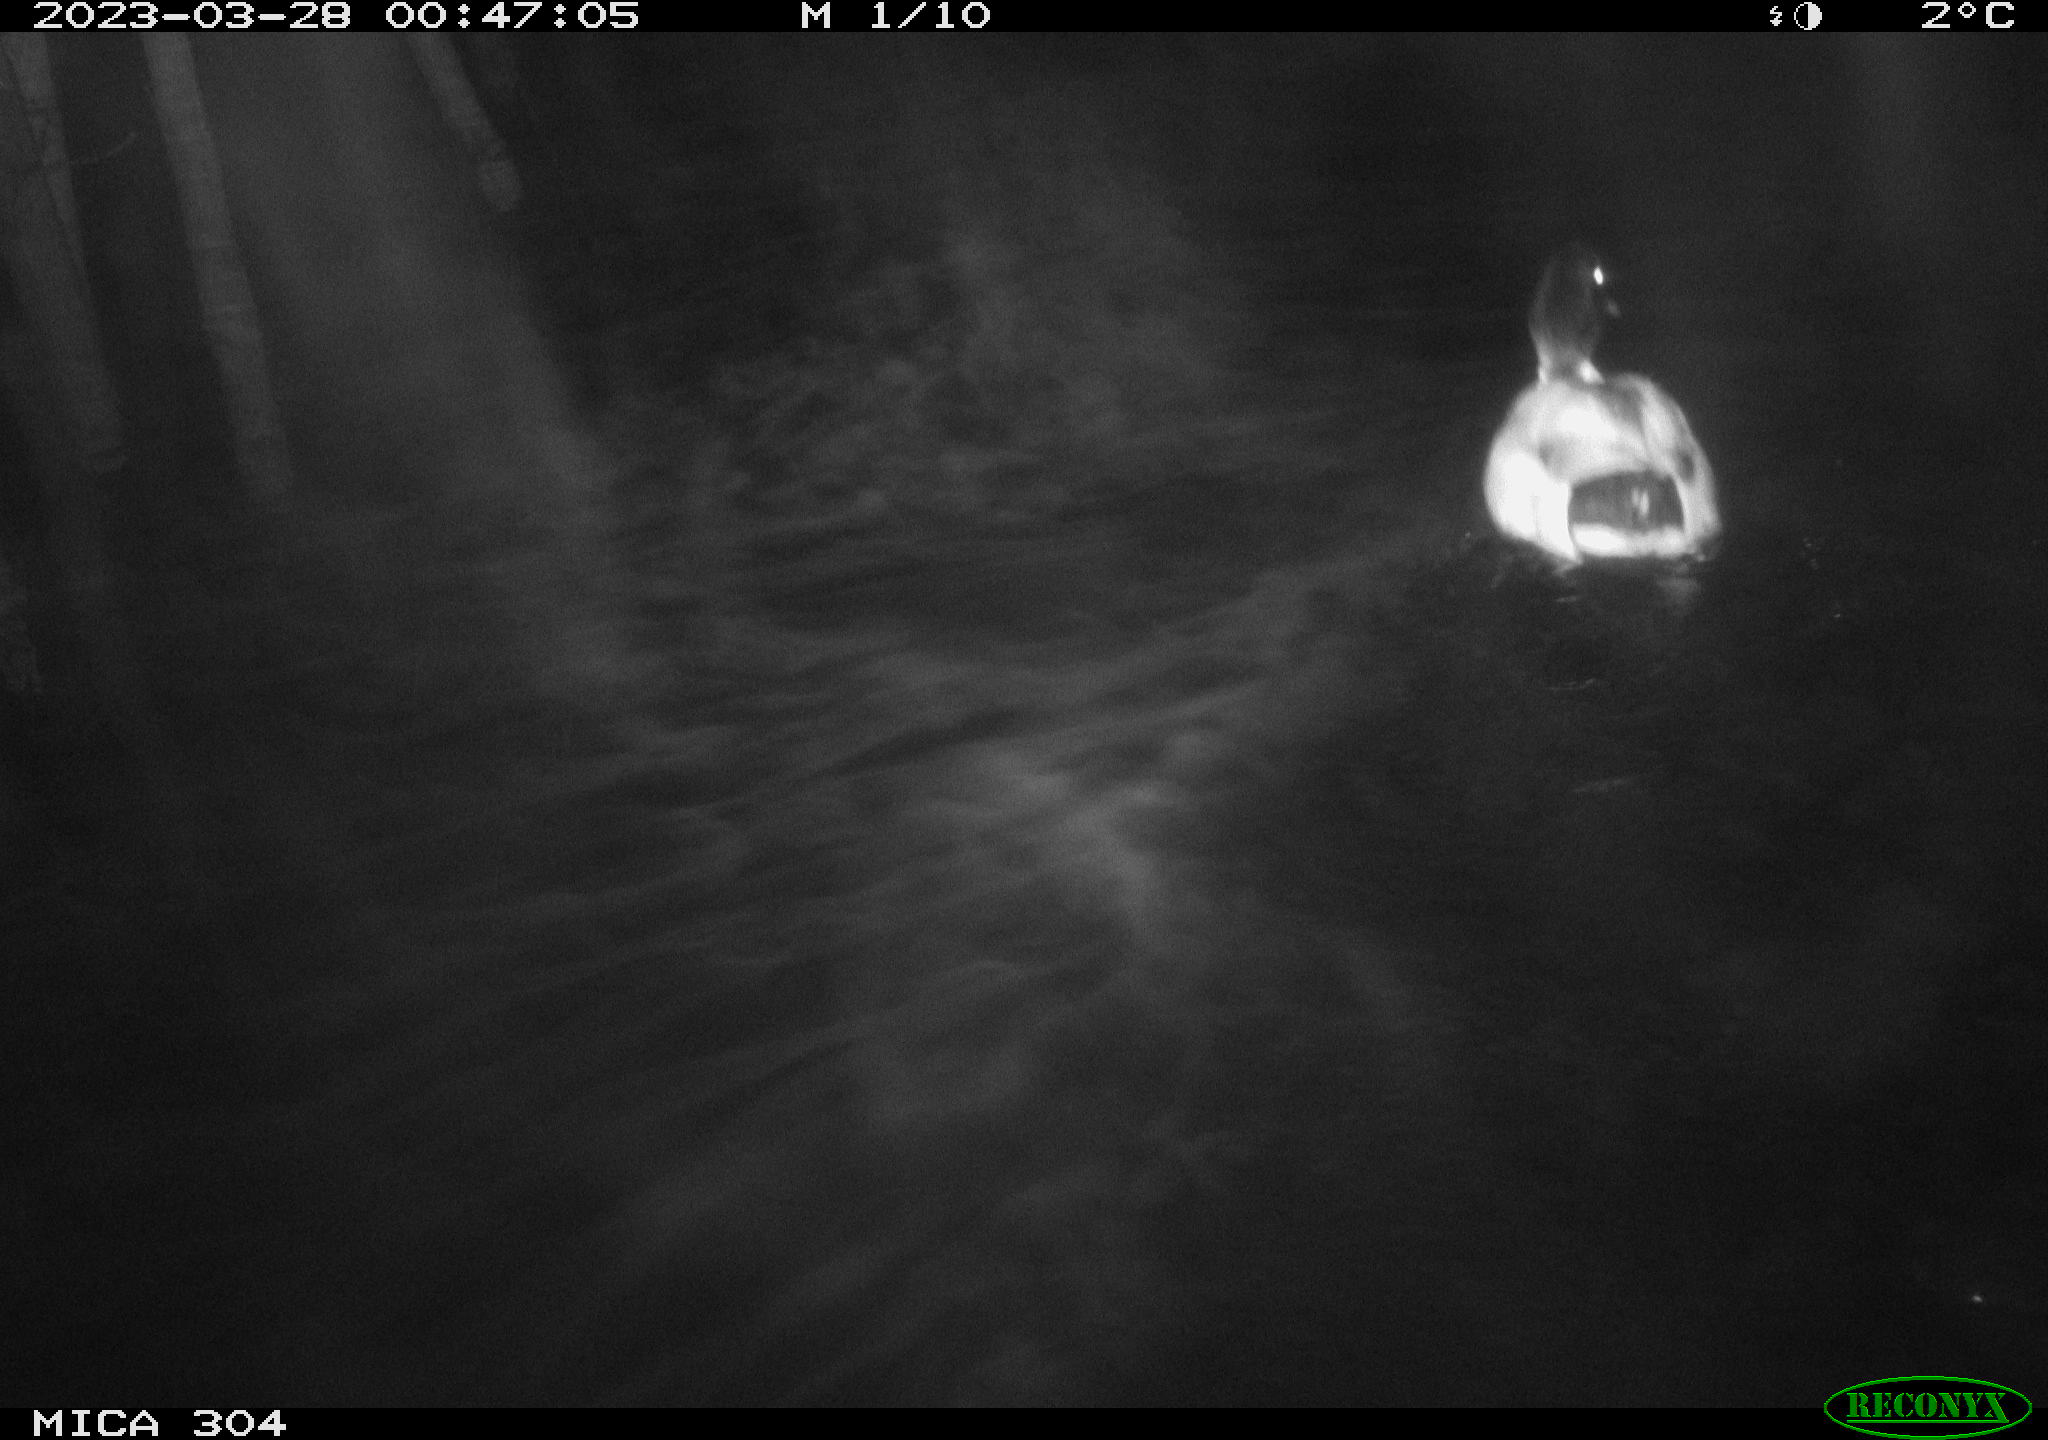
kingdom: Animalia
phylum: Chordata
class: Aves
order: Anseriformes
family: Anatidae
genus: Anas
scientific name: Anas
